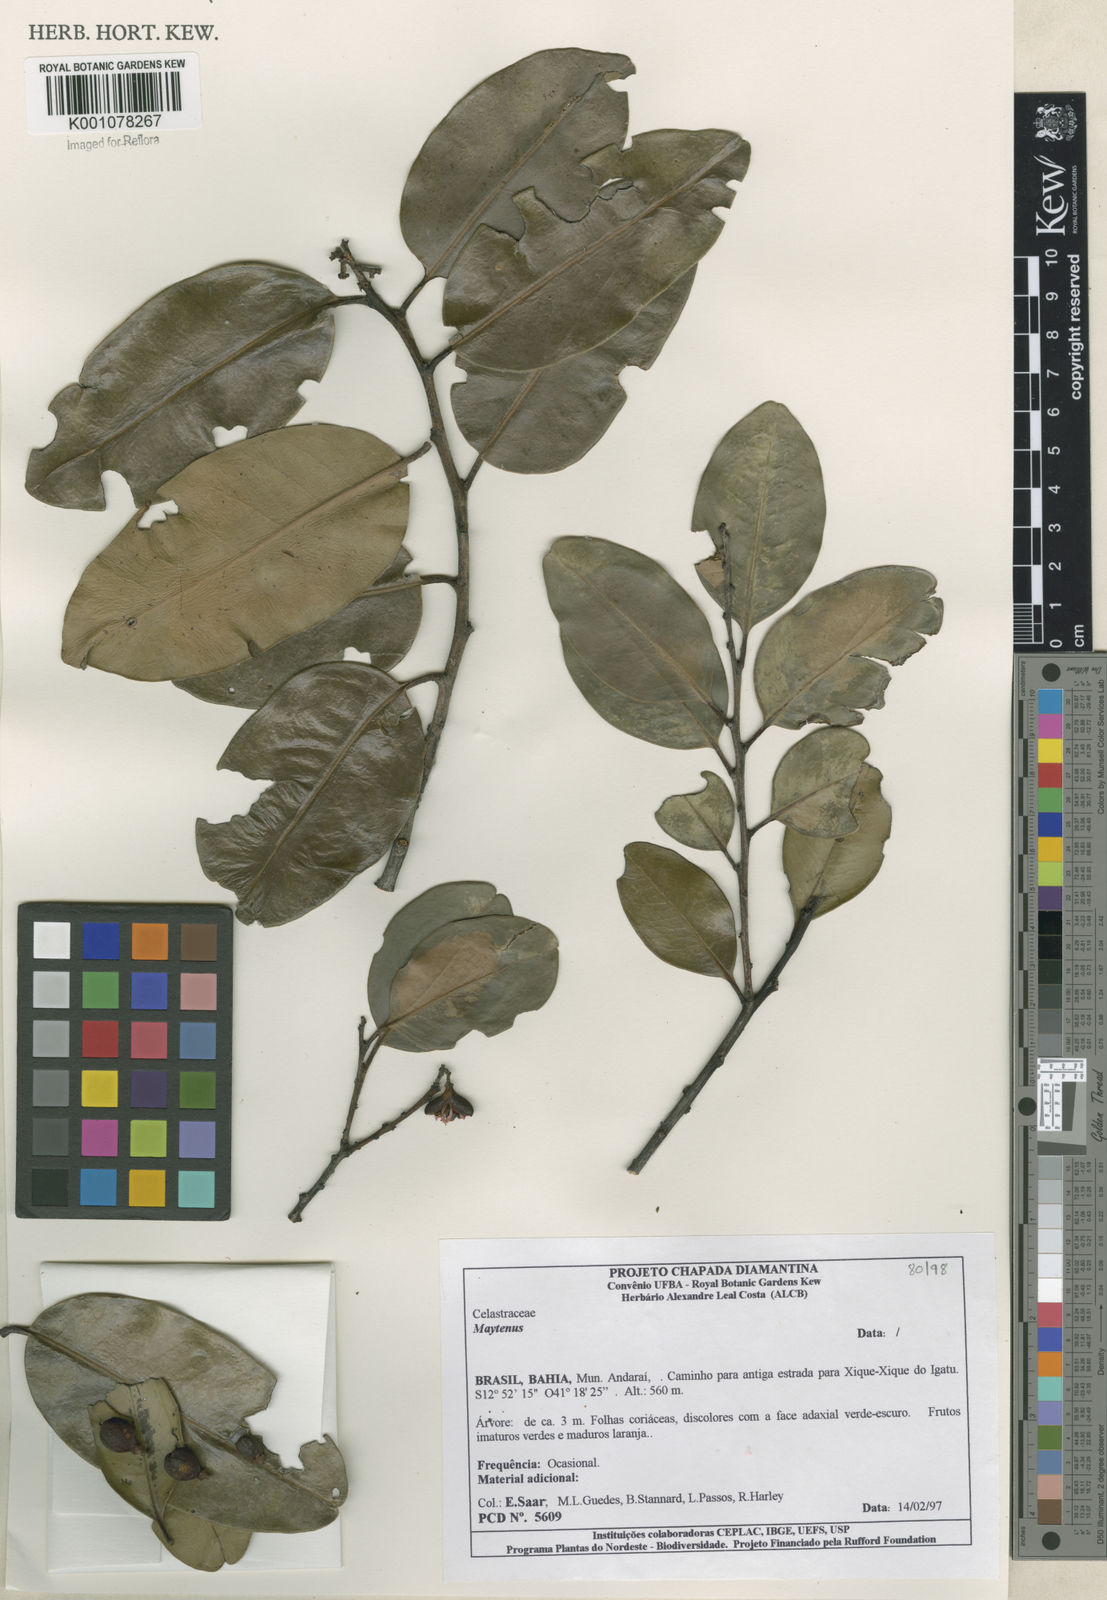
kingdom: Plantae
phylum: Tracheophyta
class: Magnoliopsida
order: Celastrales
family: Celastraceae
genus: Maytenus
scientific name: Maytenus
